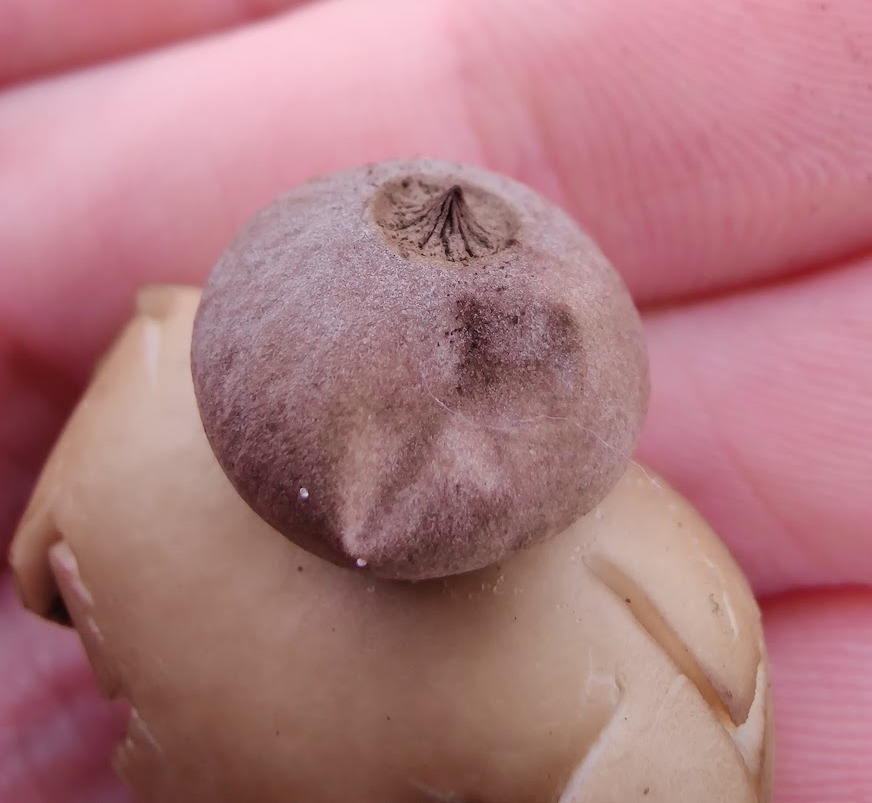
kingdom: Fungi
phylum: Basidiomycota
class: Agaricomycetes
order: Geastrales
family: Geastraceae
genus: Geastrum
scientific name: Geastrum striatum
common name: dværg-stjernebold
